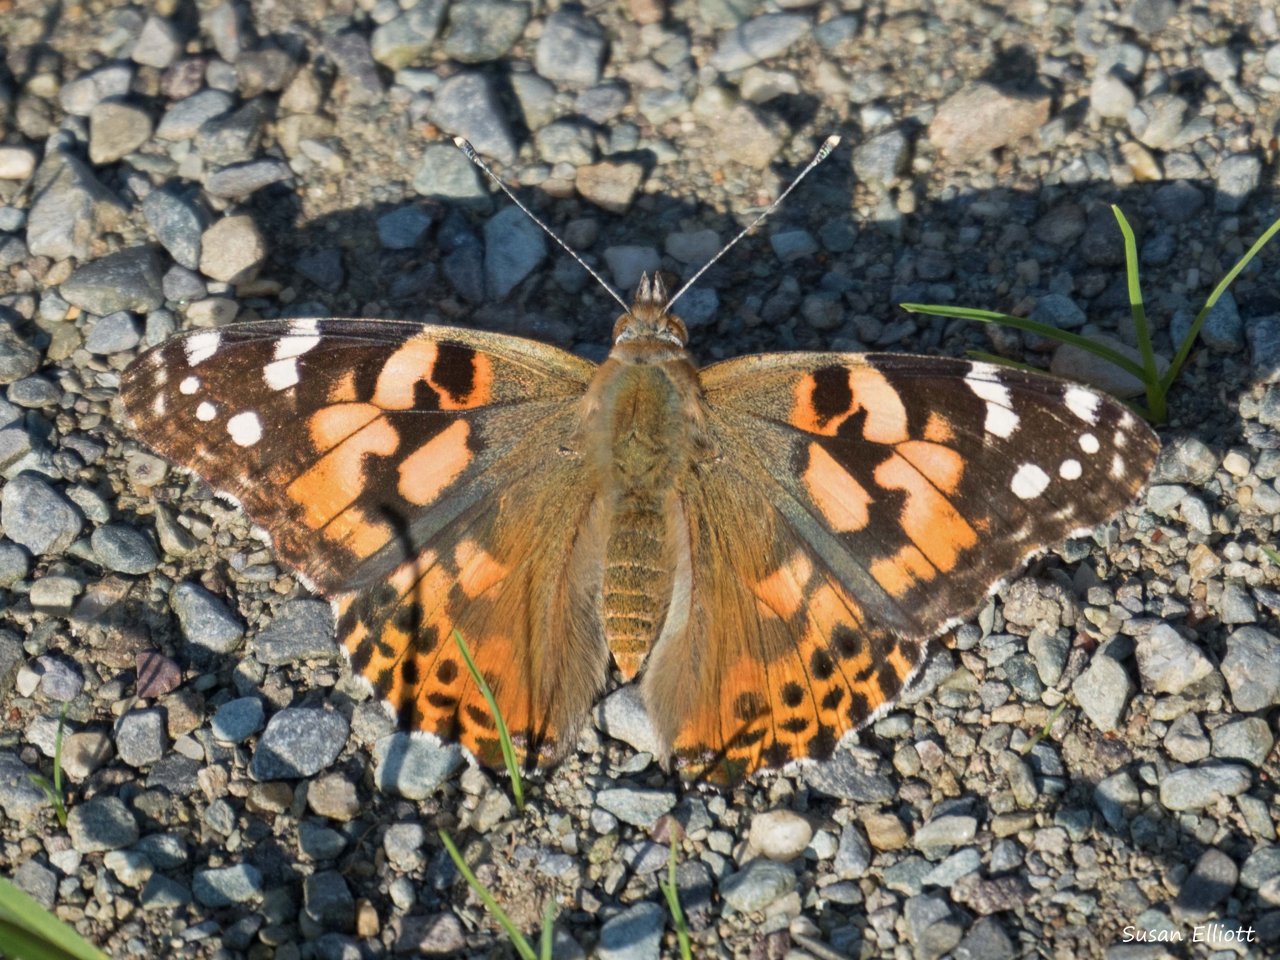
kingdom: Animalia
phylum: Arthropoda
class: Insecta
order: Lepidoptera
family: Nymphalidae
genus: Vanessa
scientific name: Vanessa cardui
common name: Painted Lady
